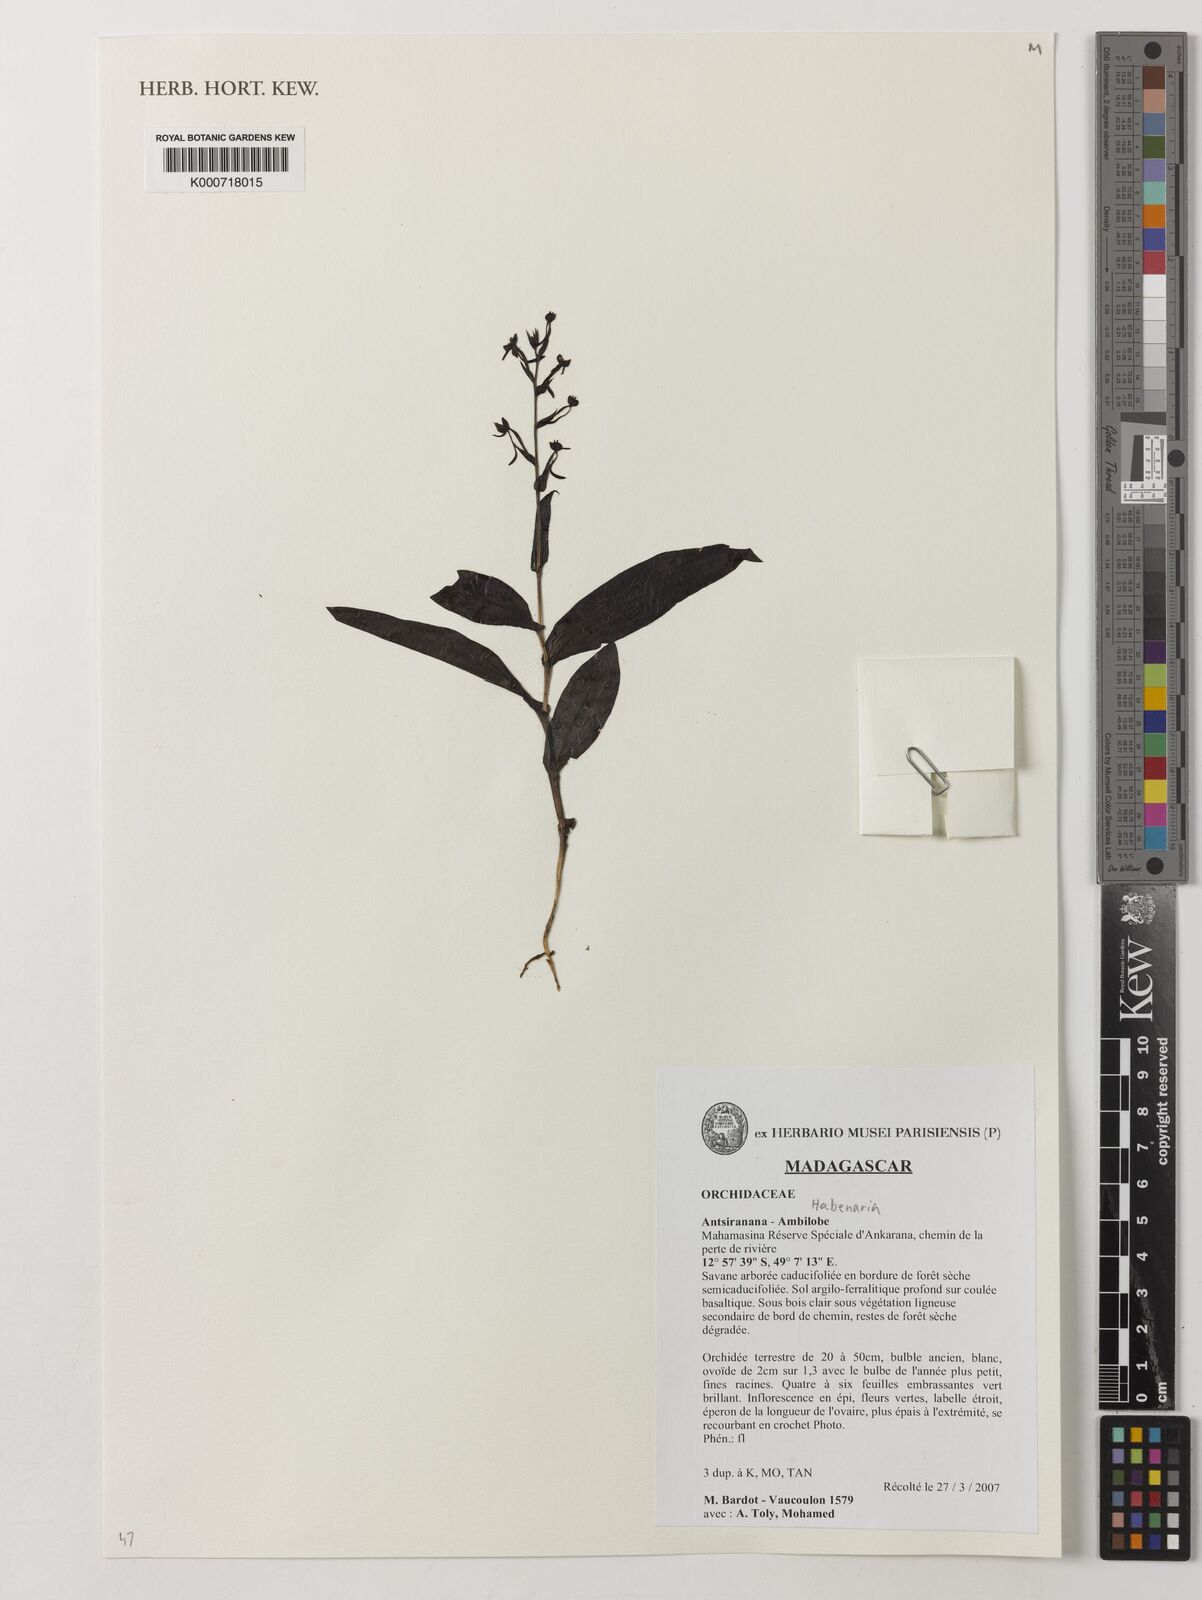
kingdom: Plantae
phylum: Tracheophyta
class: Liliopsida
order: Asparagales
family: Orchidaceae
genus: Habenaria
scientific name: Habenaria
